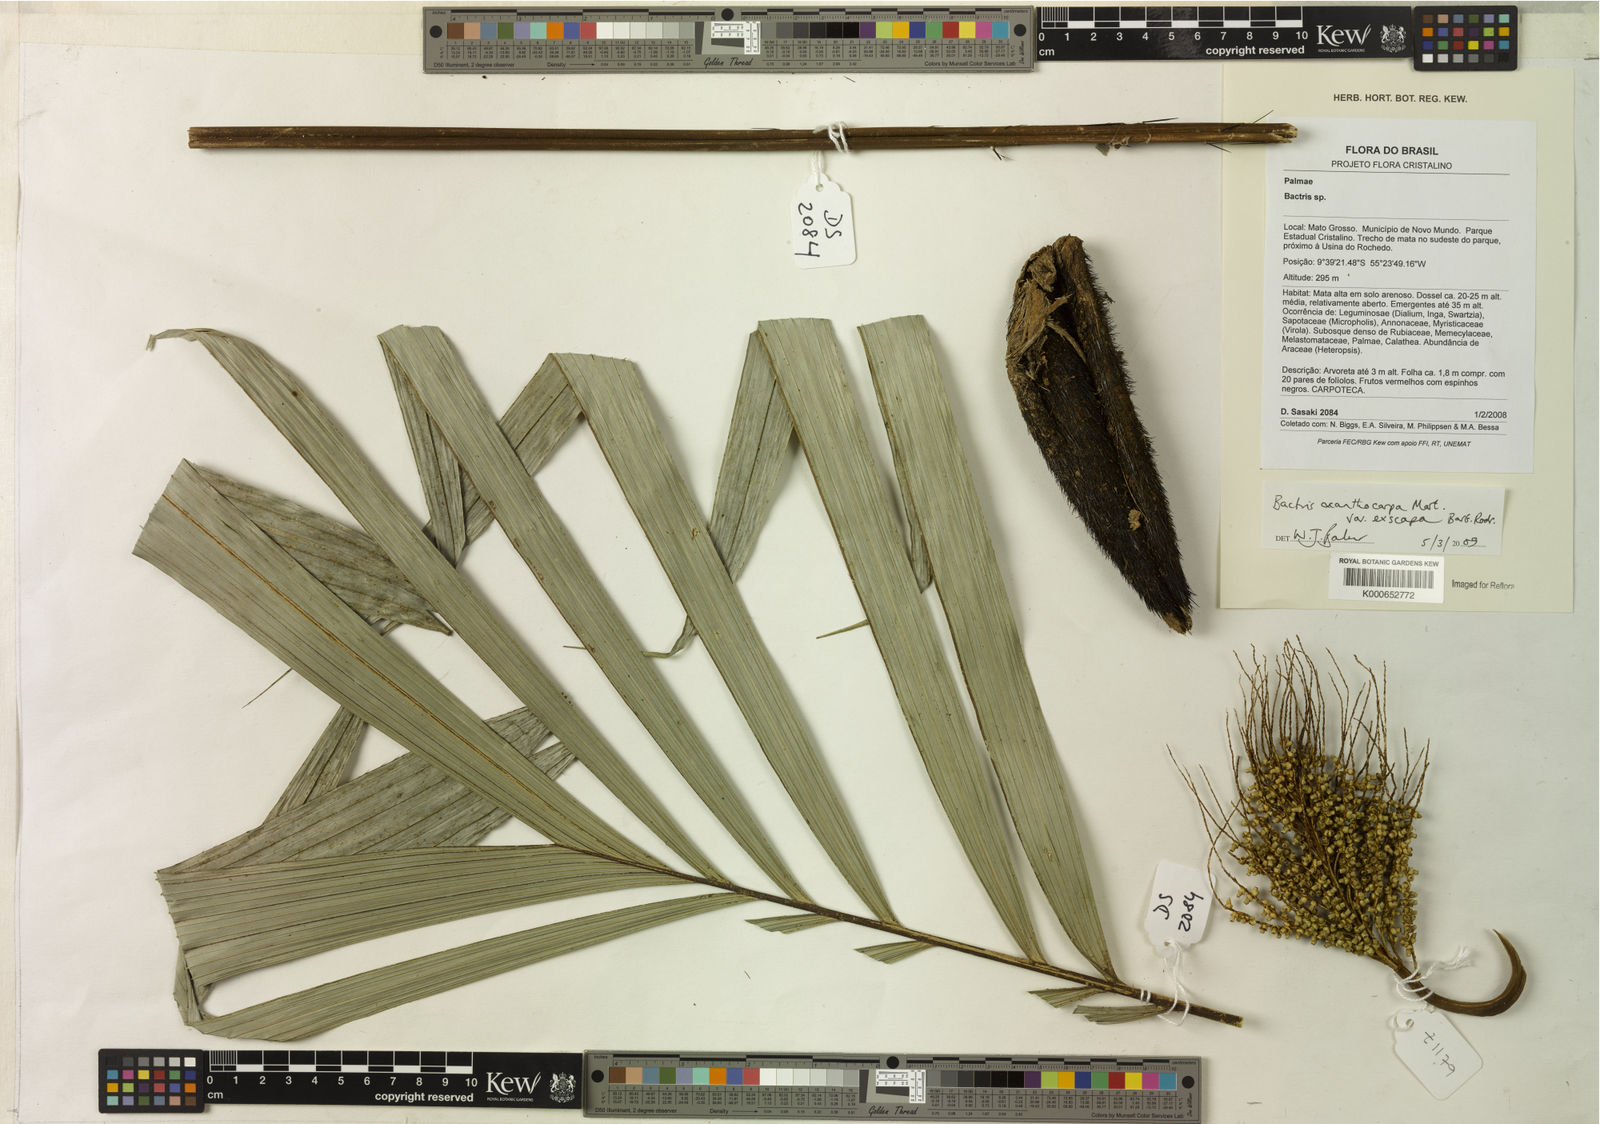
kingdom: Plantae
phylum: Tracheophyta
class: Liliopsida
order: Arecales
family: Arecaceae
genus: Bactris
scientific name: Bactris acanthocarpa
